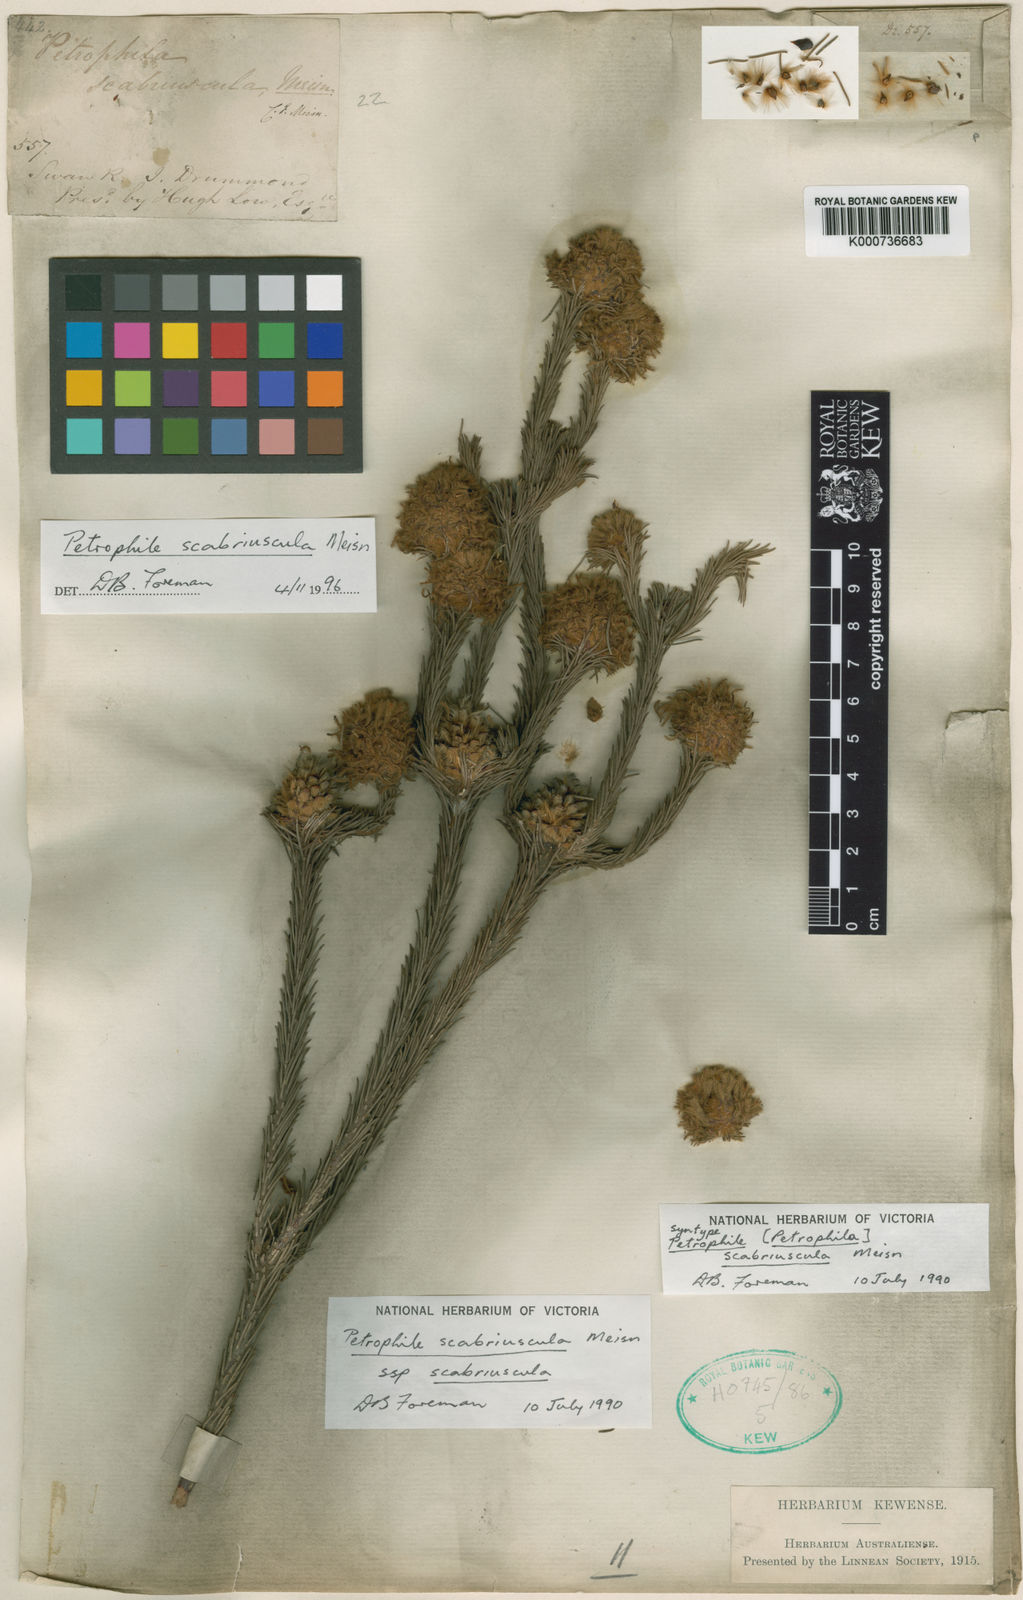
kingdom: Plantae
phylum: Tracheophyta
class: Magnoliopsida
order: Proteales
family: Proteaceae
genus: Petrophile
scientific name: Petrophile scabriuscula
